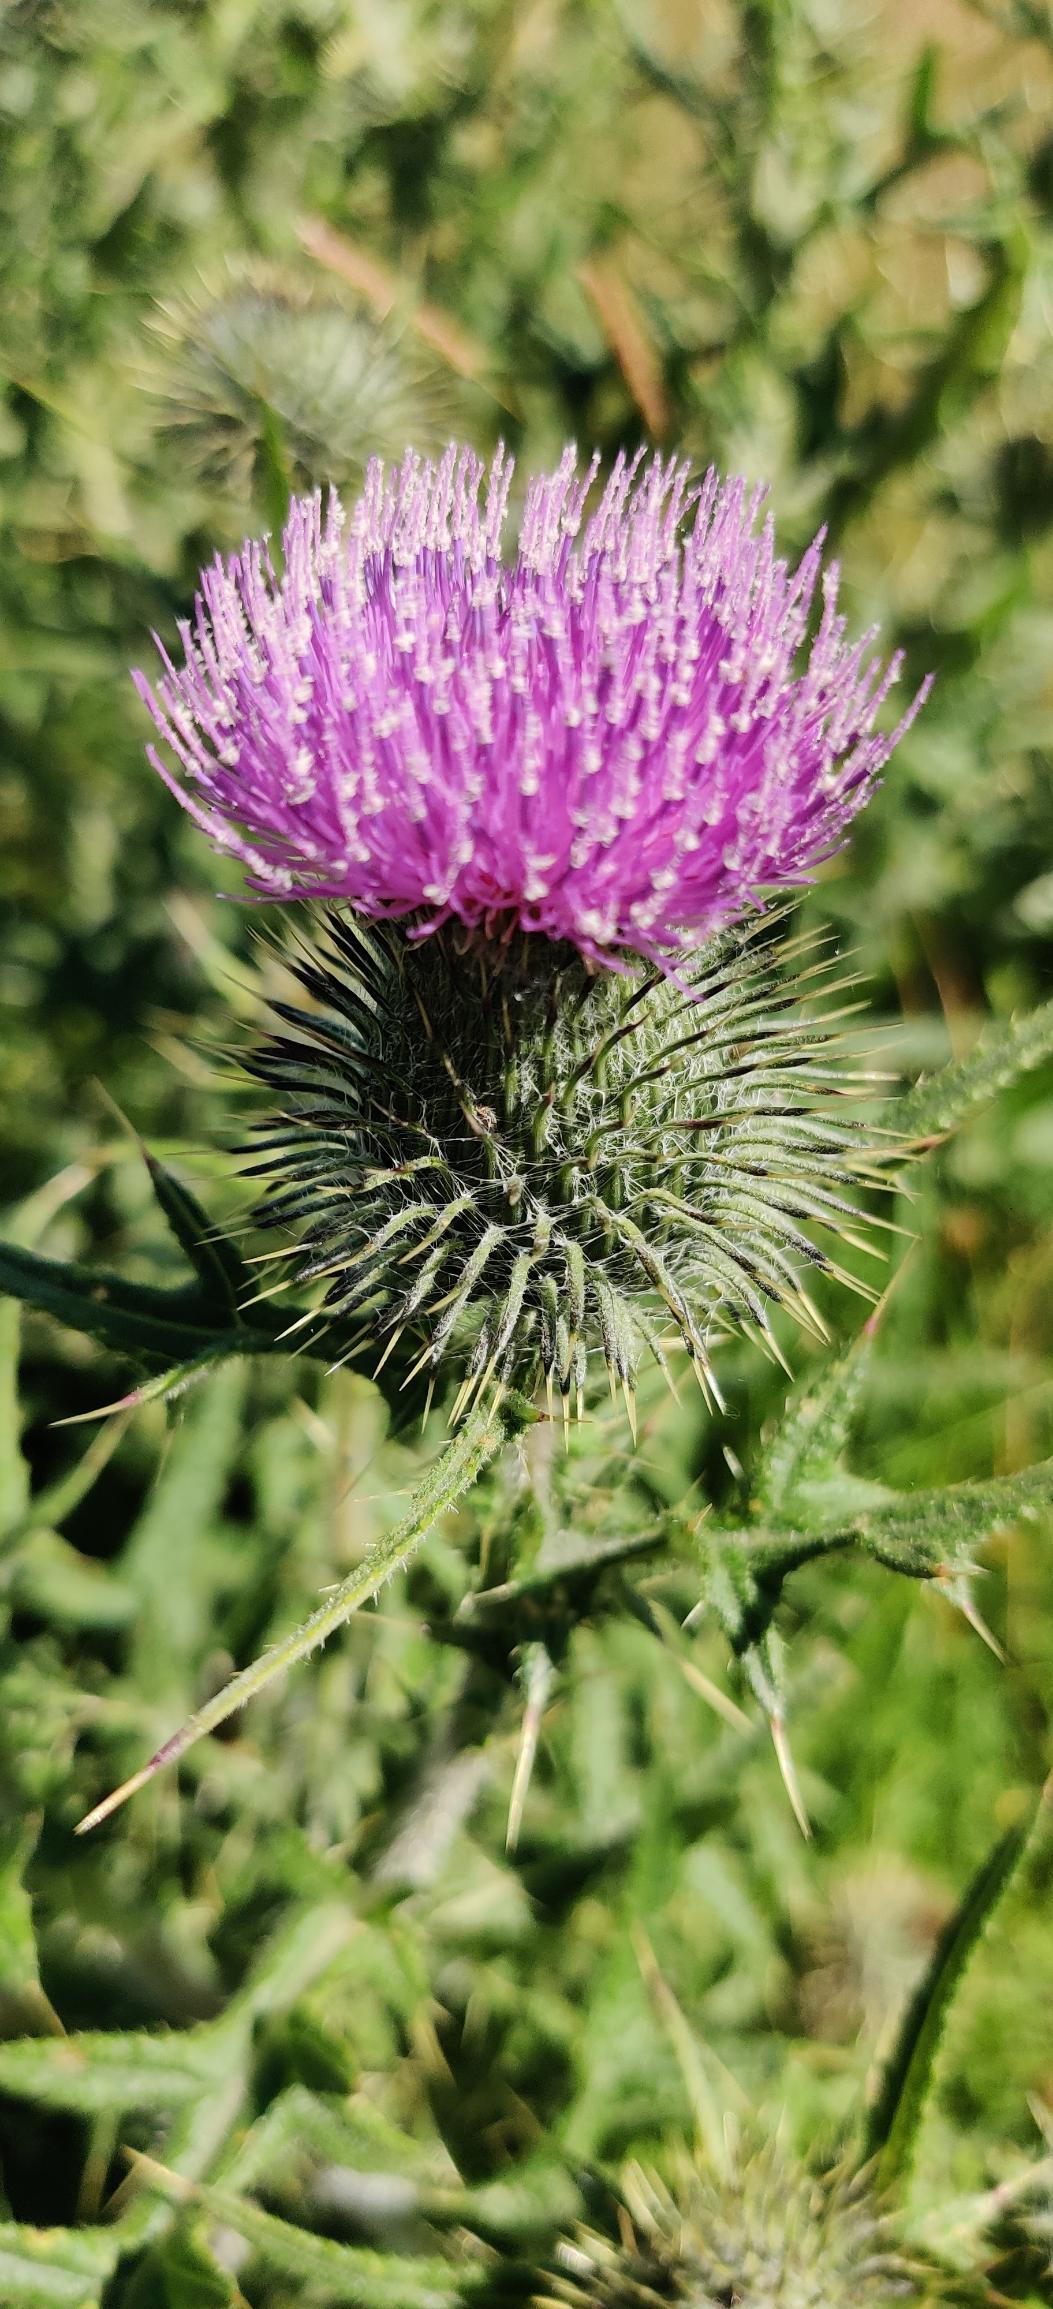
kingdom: Plantae
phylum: Tracheophyta
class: Magnoliopsida
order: Asterales
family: Asteraceae
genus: Cirsium
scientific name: Cirsium vulgare
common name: Horse-tidsel
